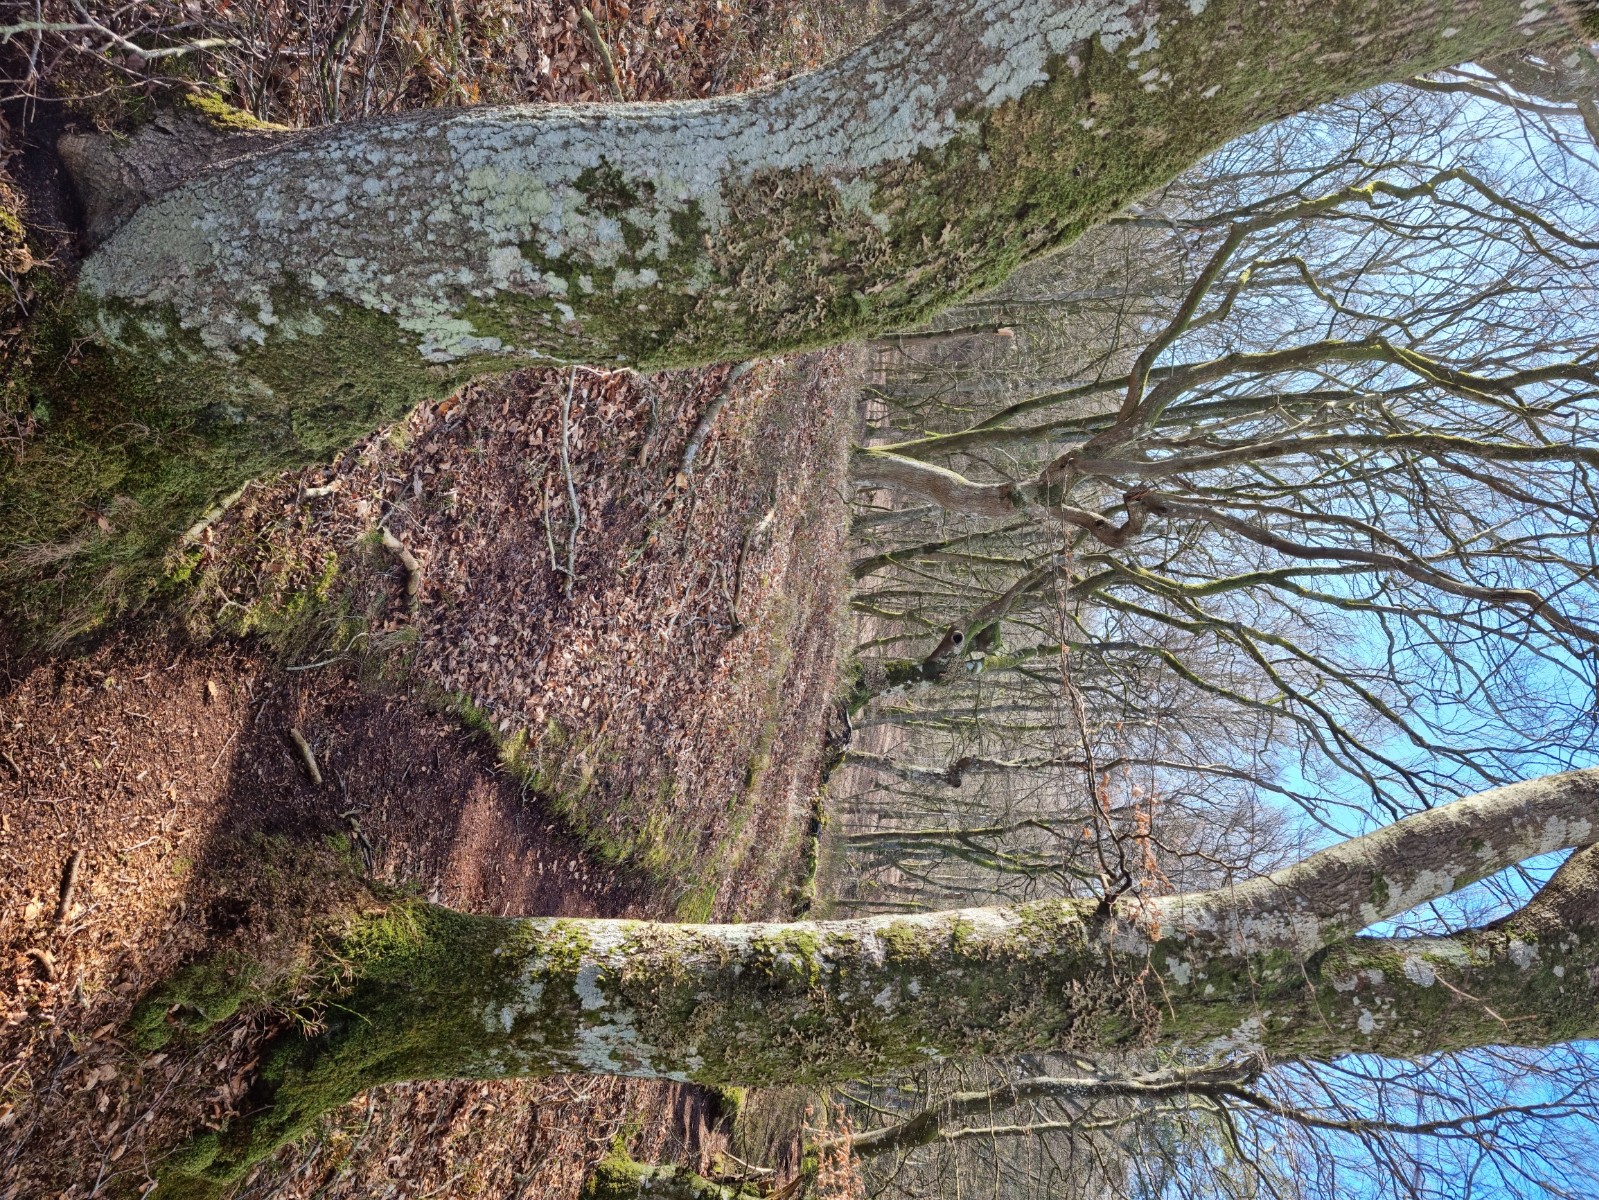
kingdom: Fungi
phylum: Ascomycota
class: Lecanoromycetes
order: Peltigerales
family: Lobariaceae
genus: Lobaria
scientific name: Lobaria pulmonaria
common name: almindelig lungelav
